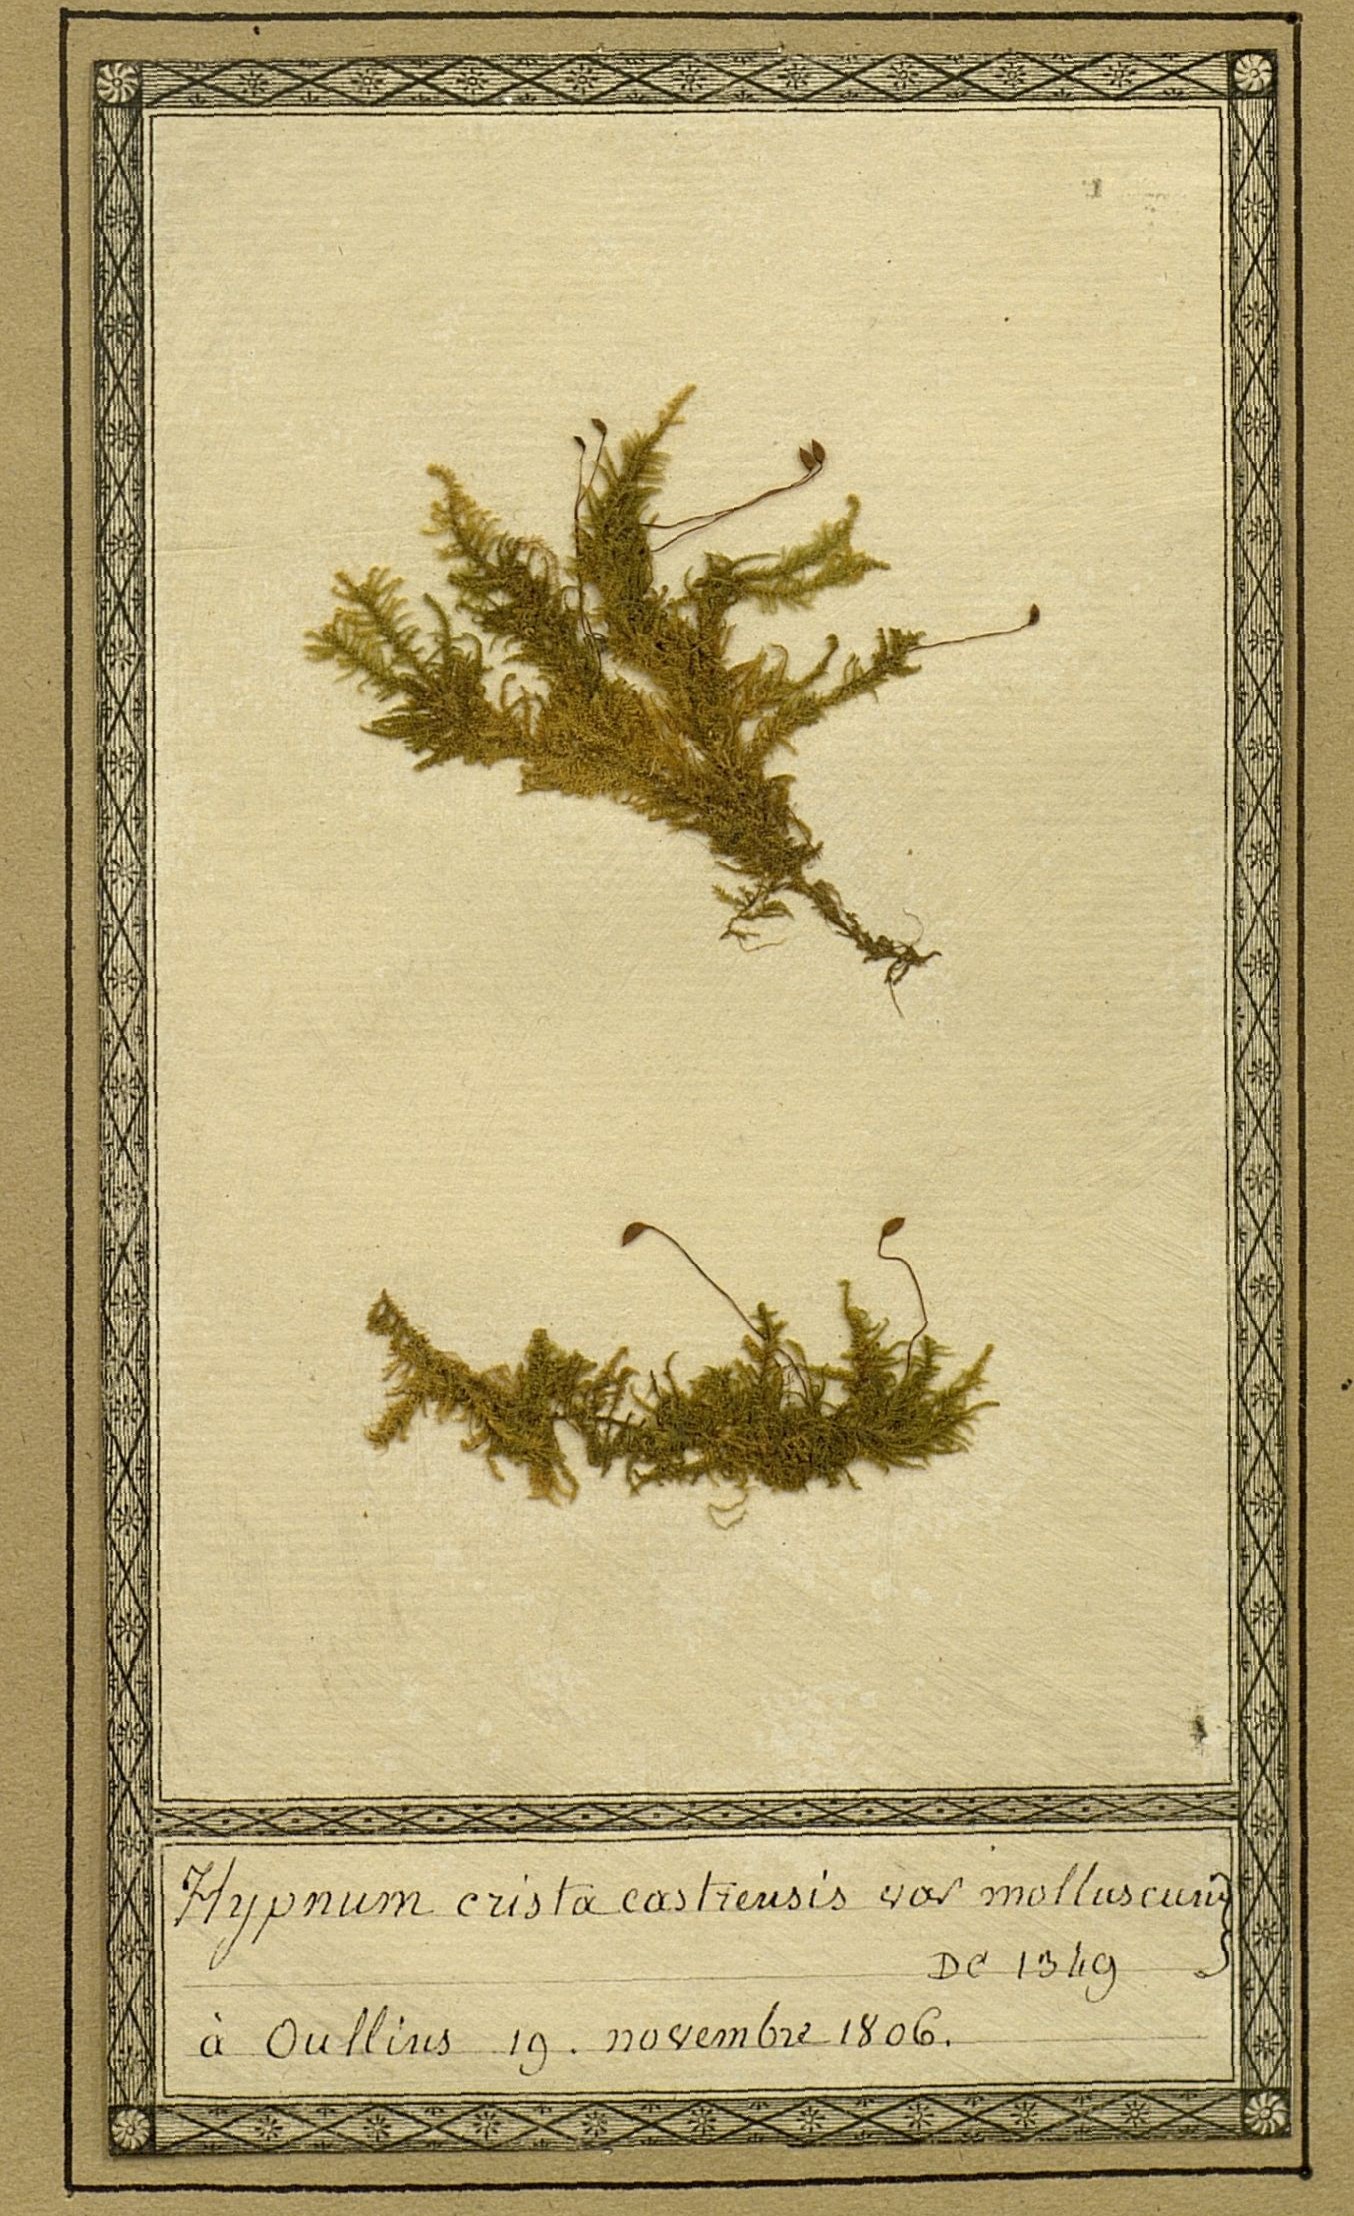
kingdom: Plantae
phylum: Bryophyta
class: Bryopsida
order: Hypnales
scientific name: Hypnales
